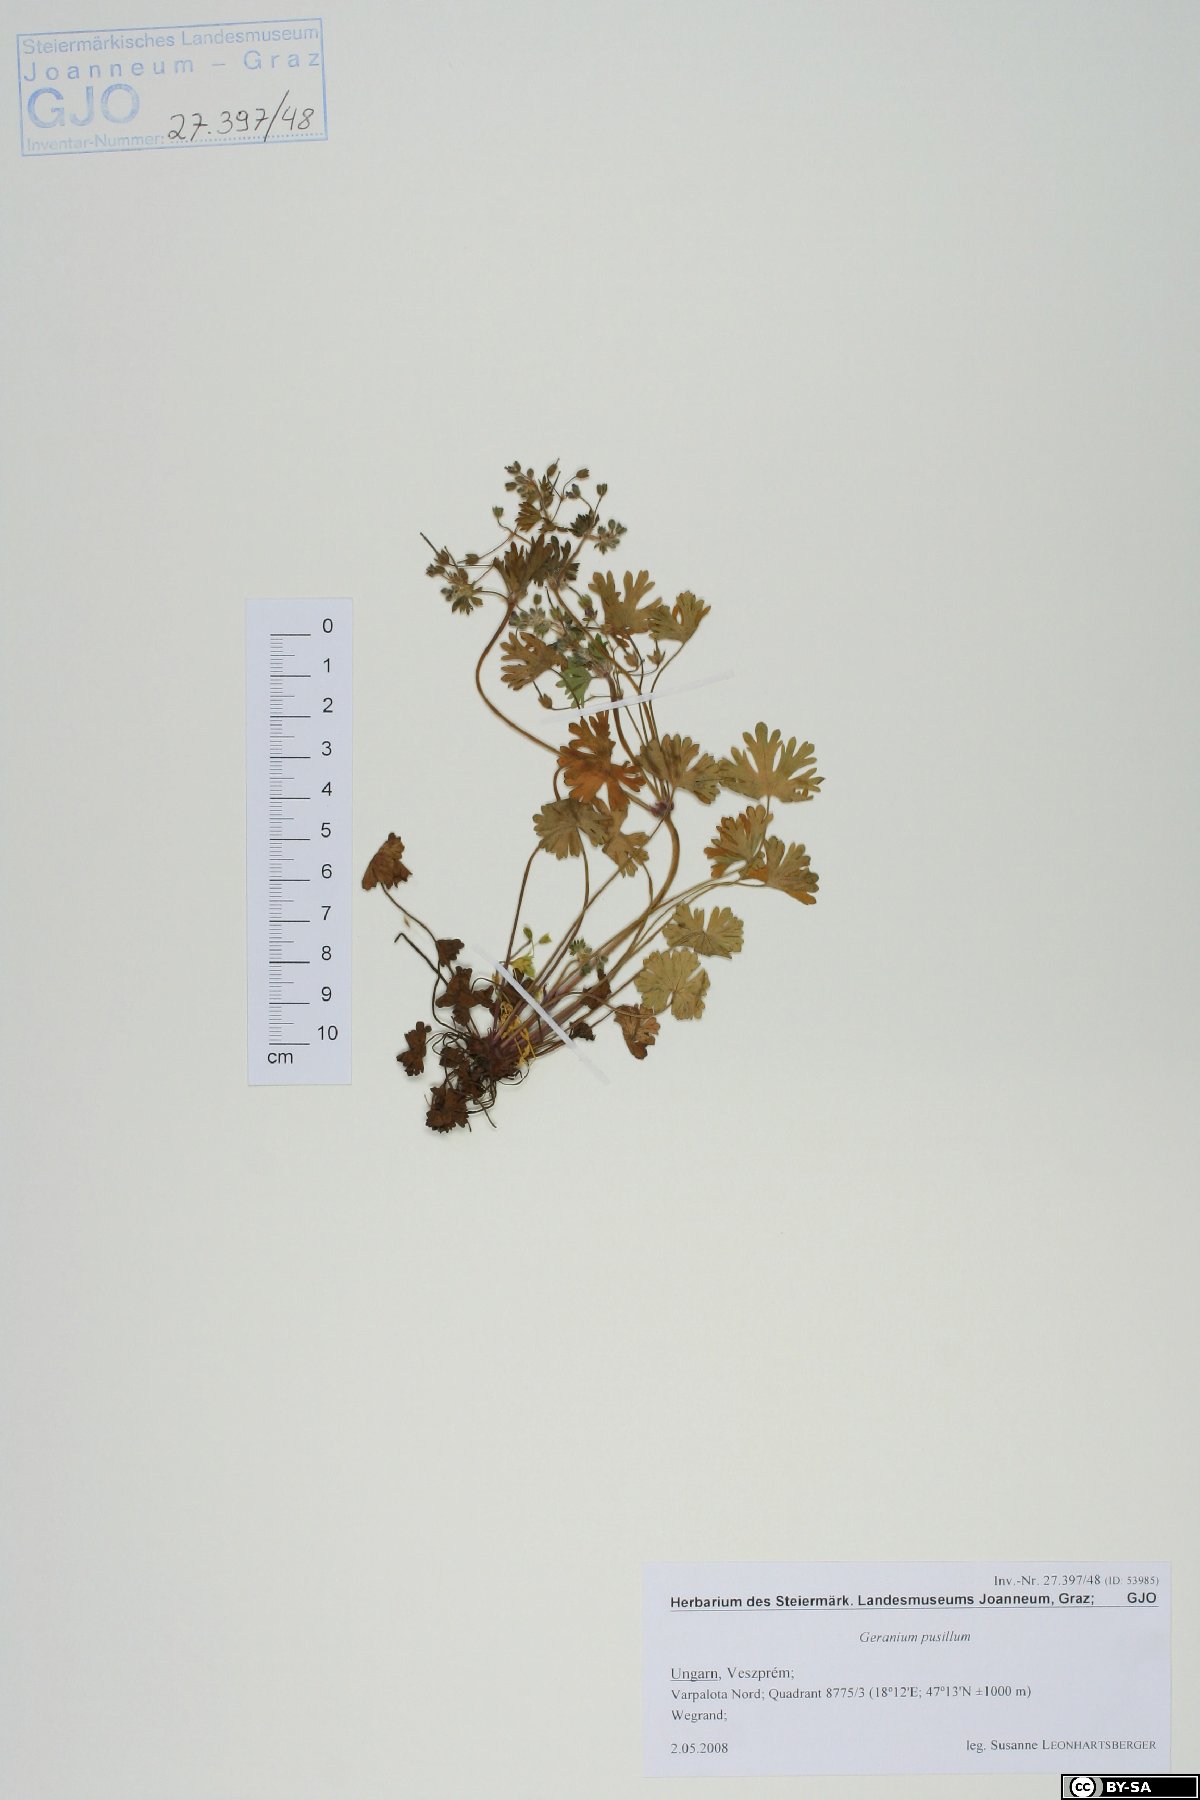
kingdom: Plantae
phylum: Tracheophyta
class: Magnoliopsida
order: Geraniales
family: Geraniaceae
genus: Geranium
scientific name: Geranium pusillum
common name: Small geranium
